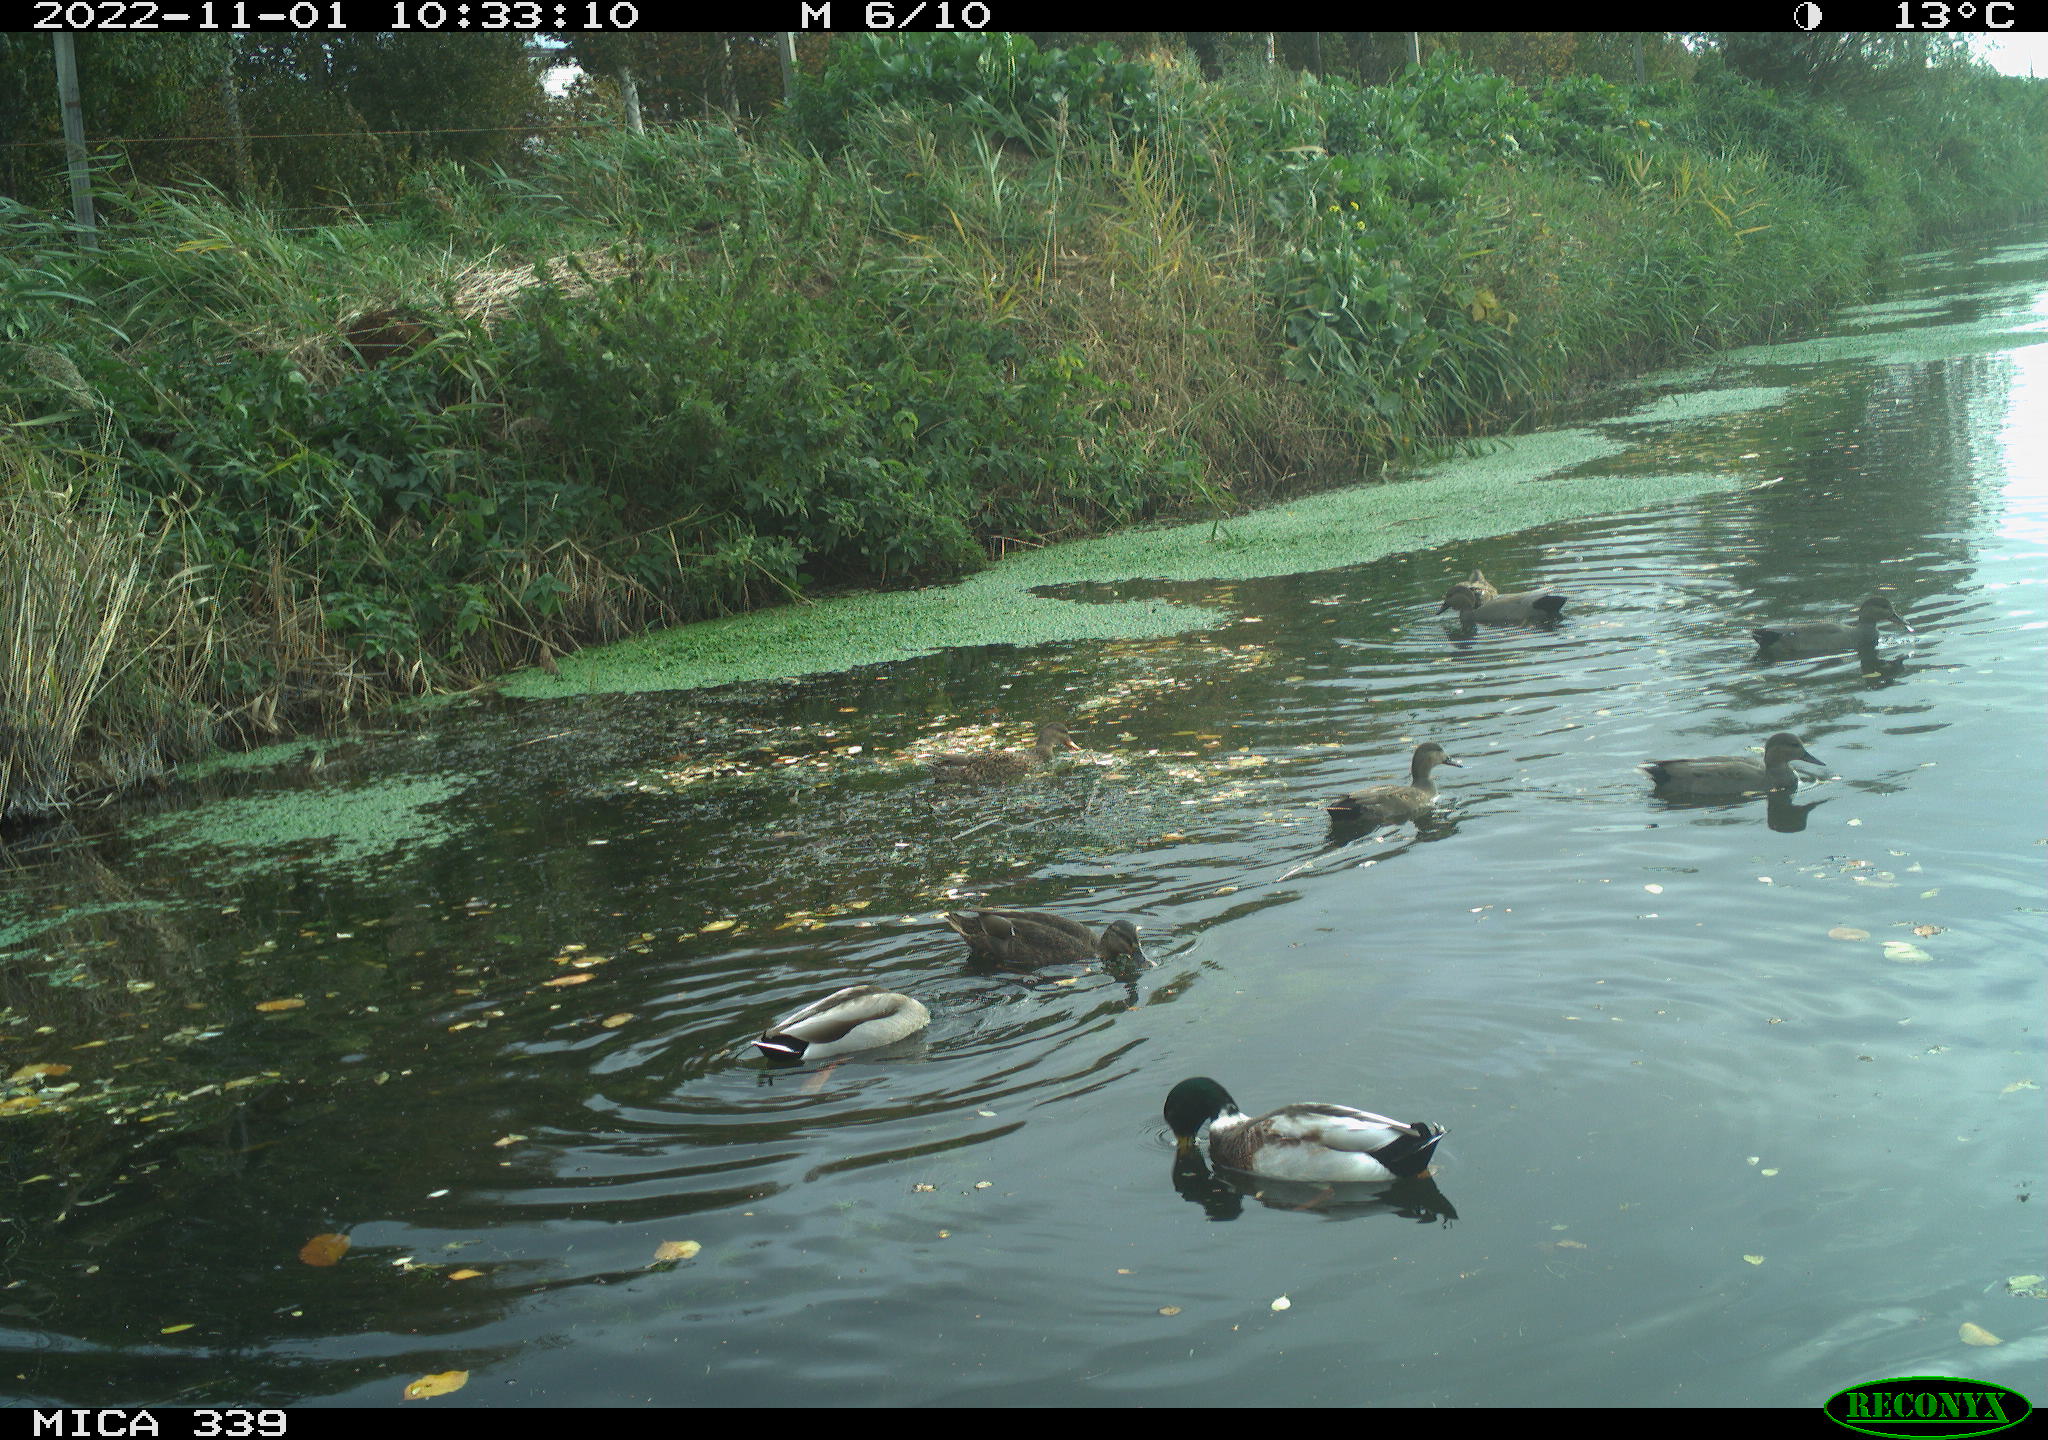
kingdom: Animalia
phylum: Chordata
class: Aves
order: Anseriformes
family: Anatidae
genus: Anas
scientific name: Anas platyrhynchos
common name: Mallard
